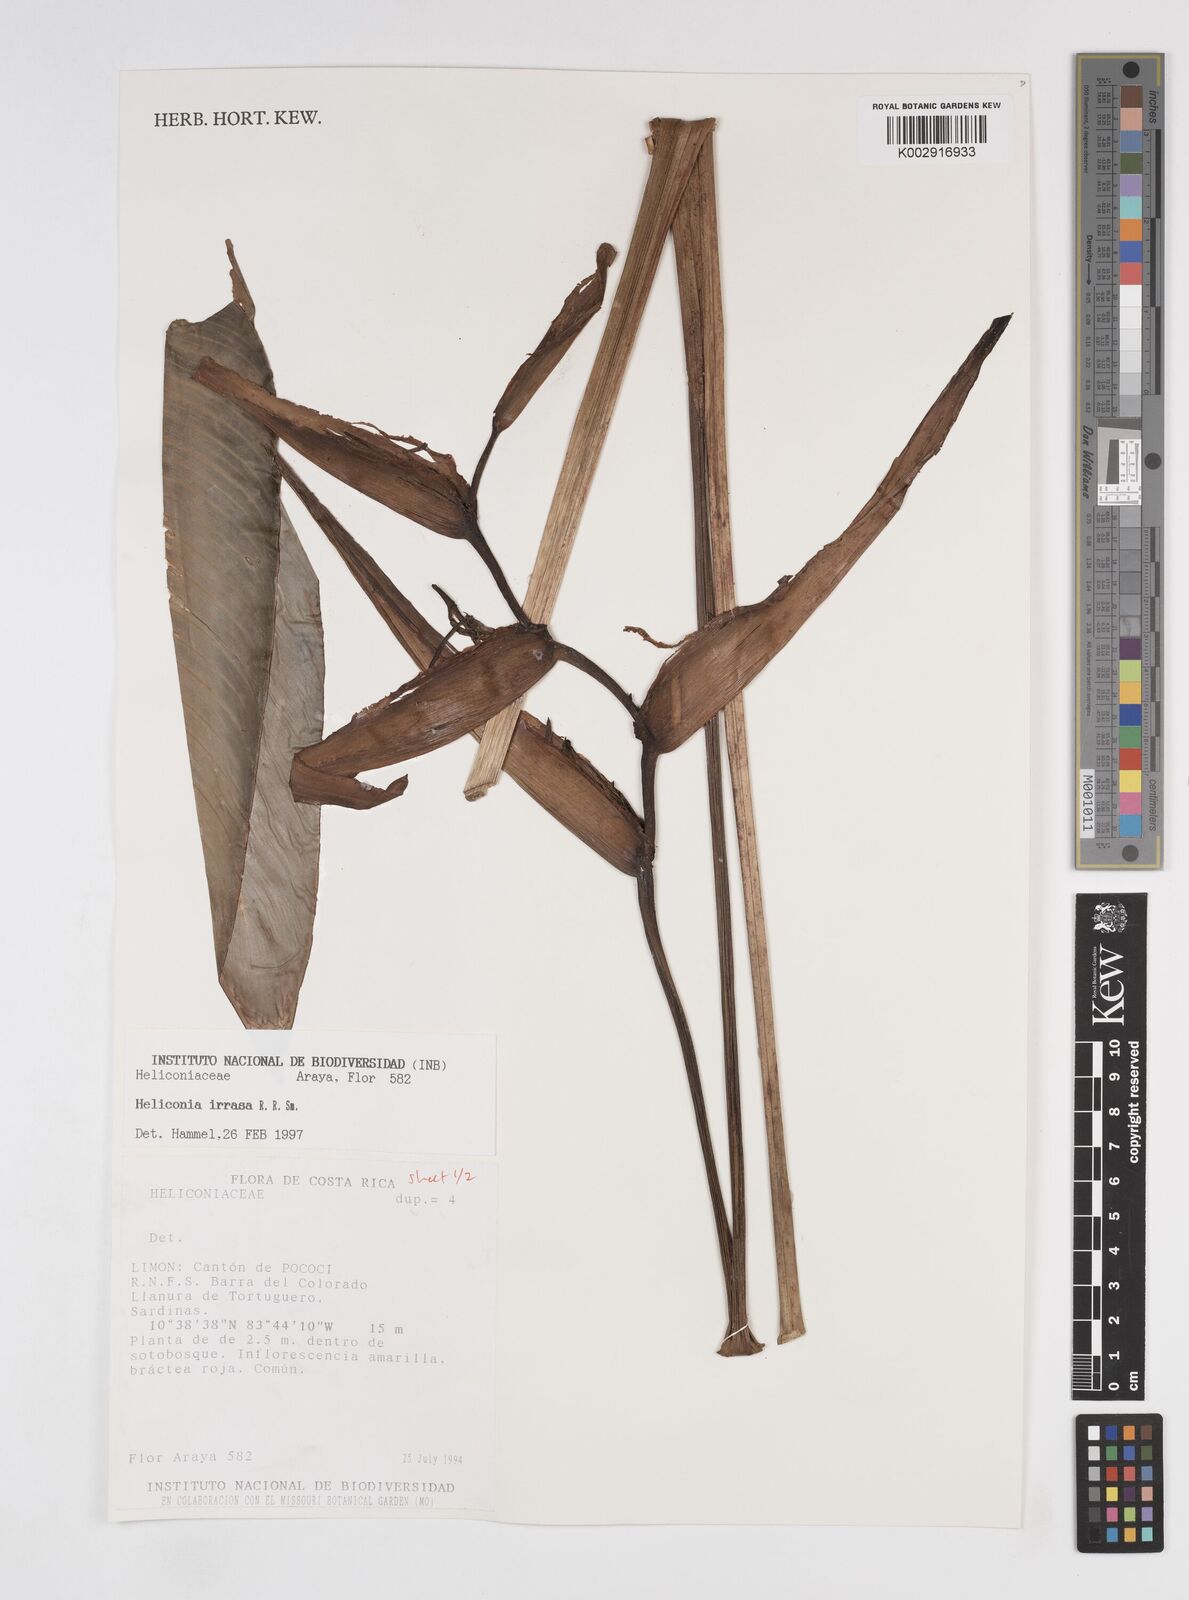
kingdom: Plantae
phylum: Tracheophyta
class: Liliopsida
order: Zingiberales
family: Heliconiaceae
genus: Heliconia
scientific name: Heliconia irrasa
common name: Wild plantain
